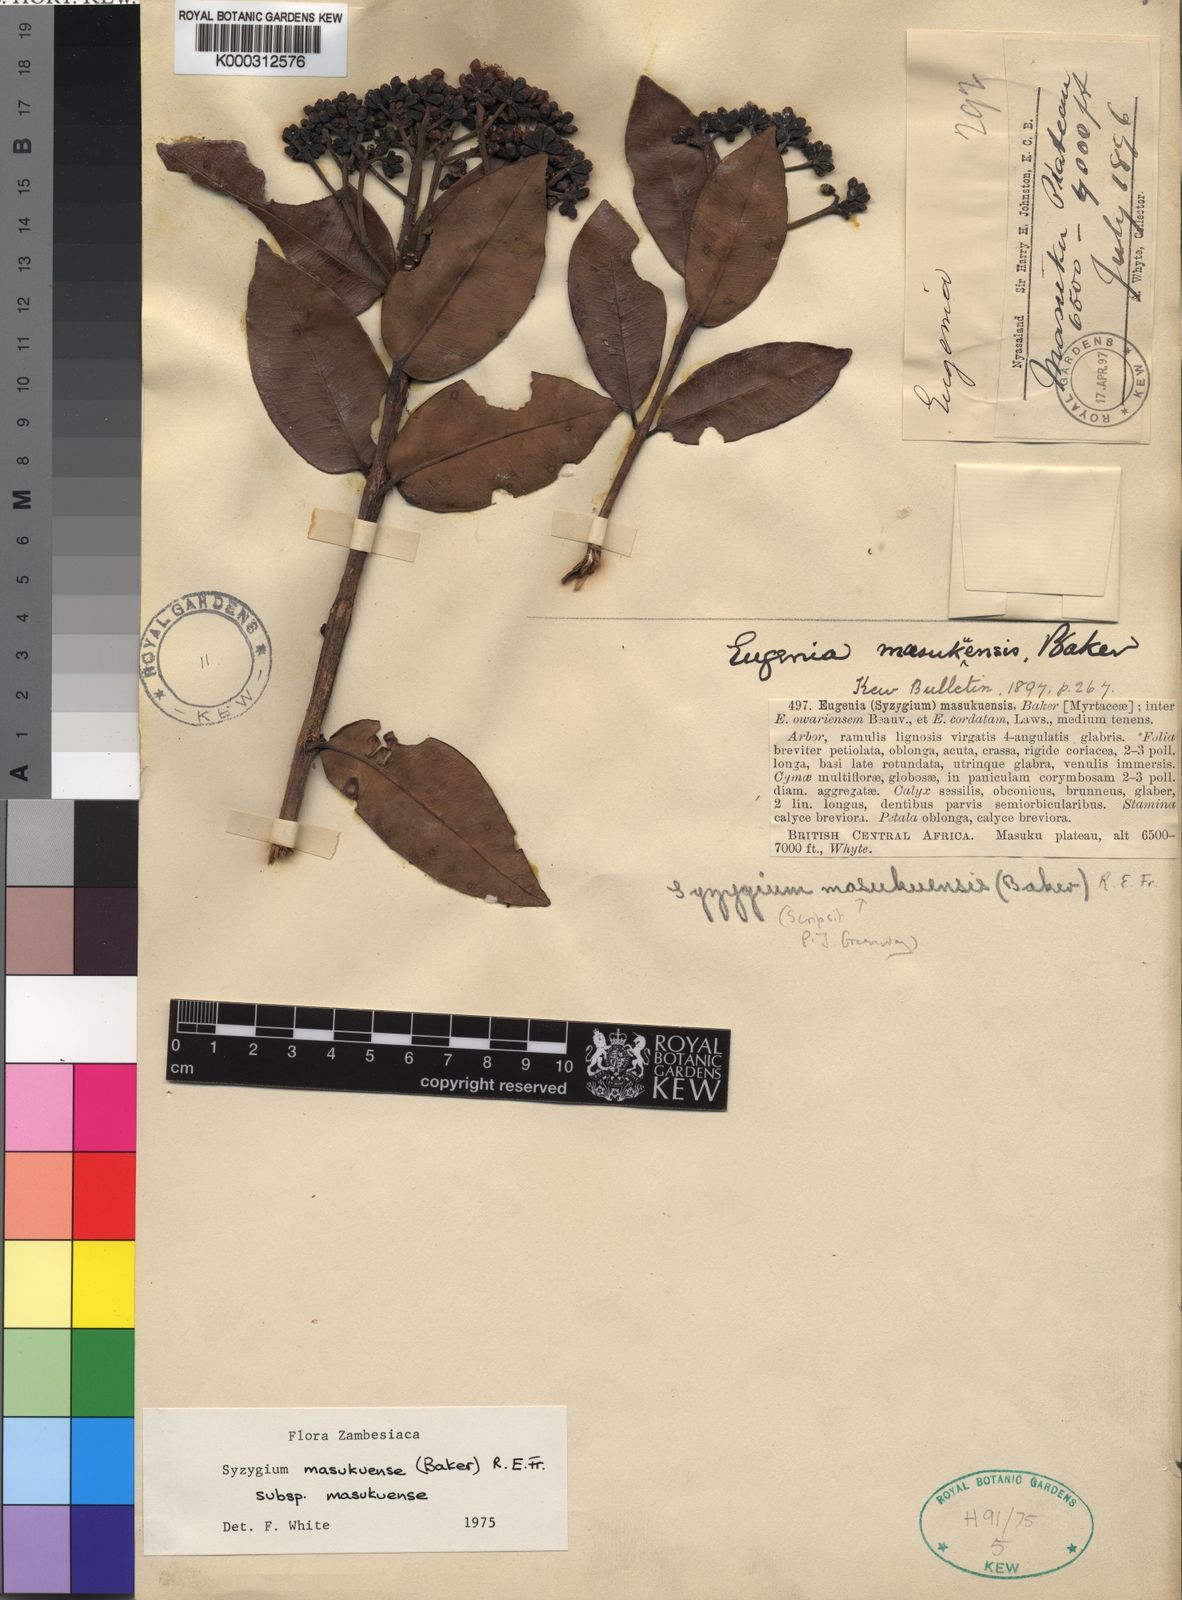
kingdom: Plantae
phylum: Tracheophyta
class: Magnoliopsida
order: Myrtales
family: Myrtaceae
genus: Syzygium
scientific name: Syzygium masukuense
